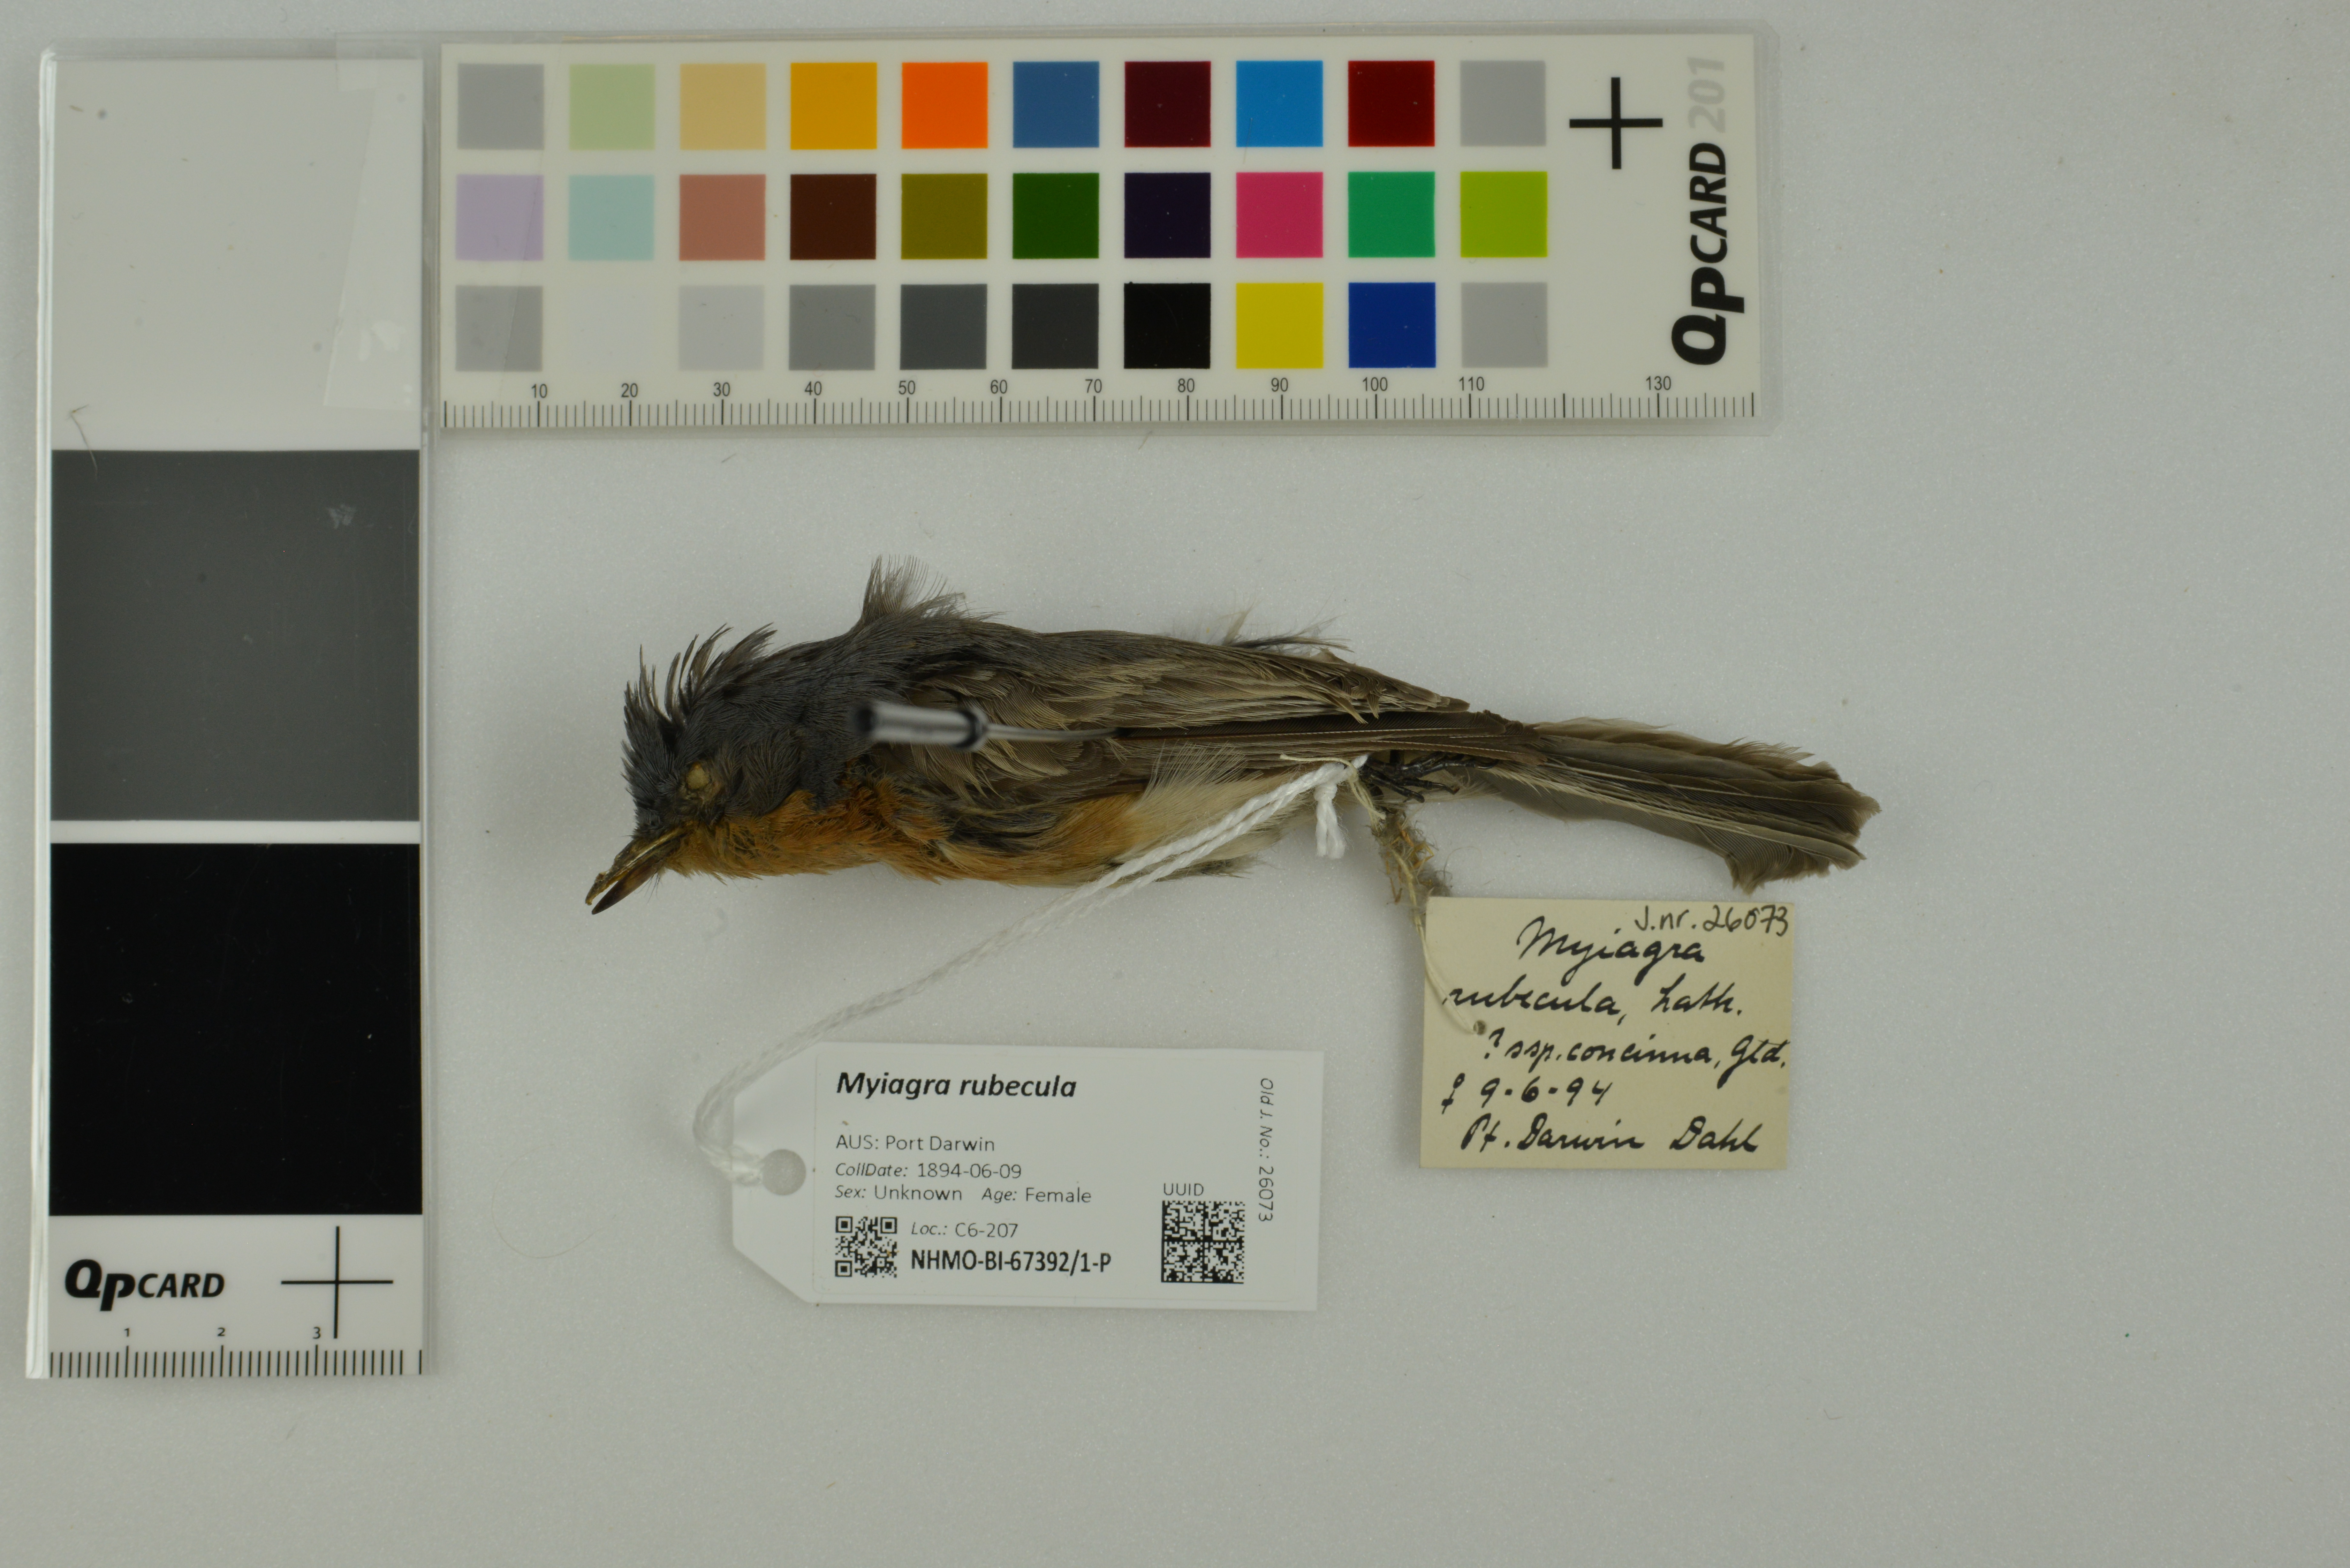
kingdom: Animalia
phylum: Chordata
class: Aves
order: Passeriformes
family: Monarchidae
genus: Myiagra
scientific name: Myiagra rubecula
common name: Leaden flycatcher
